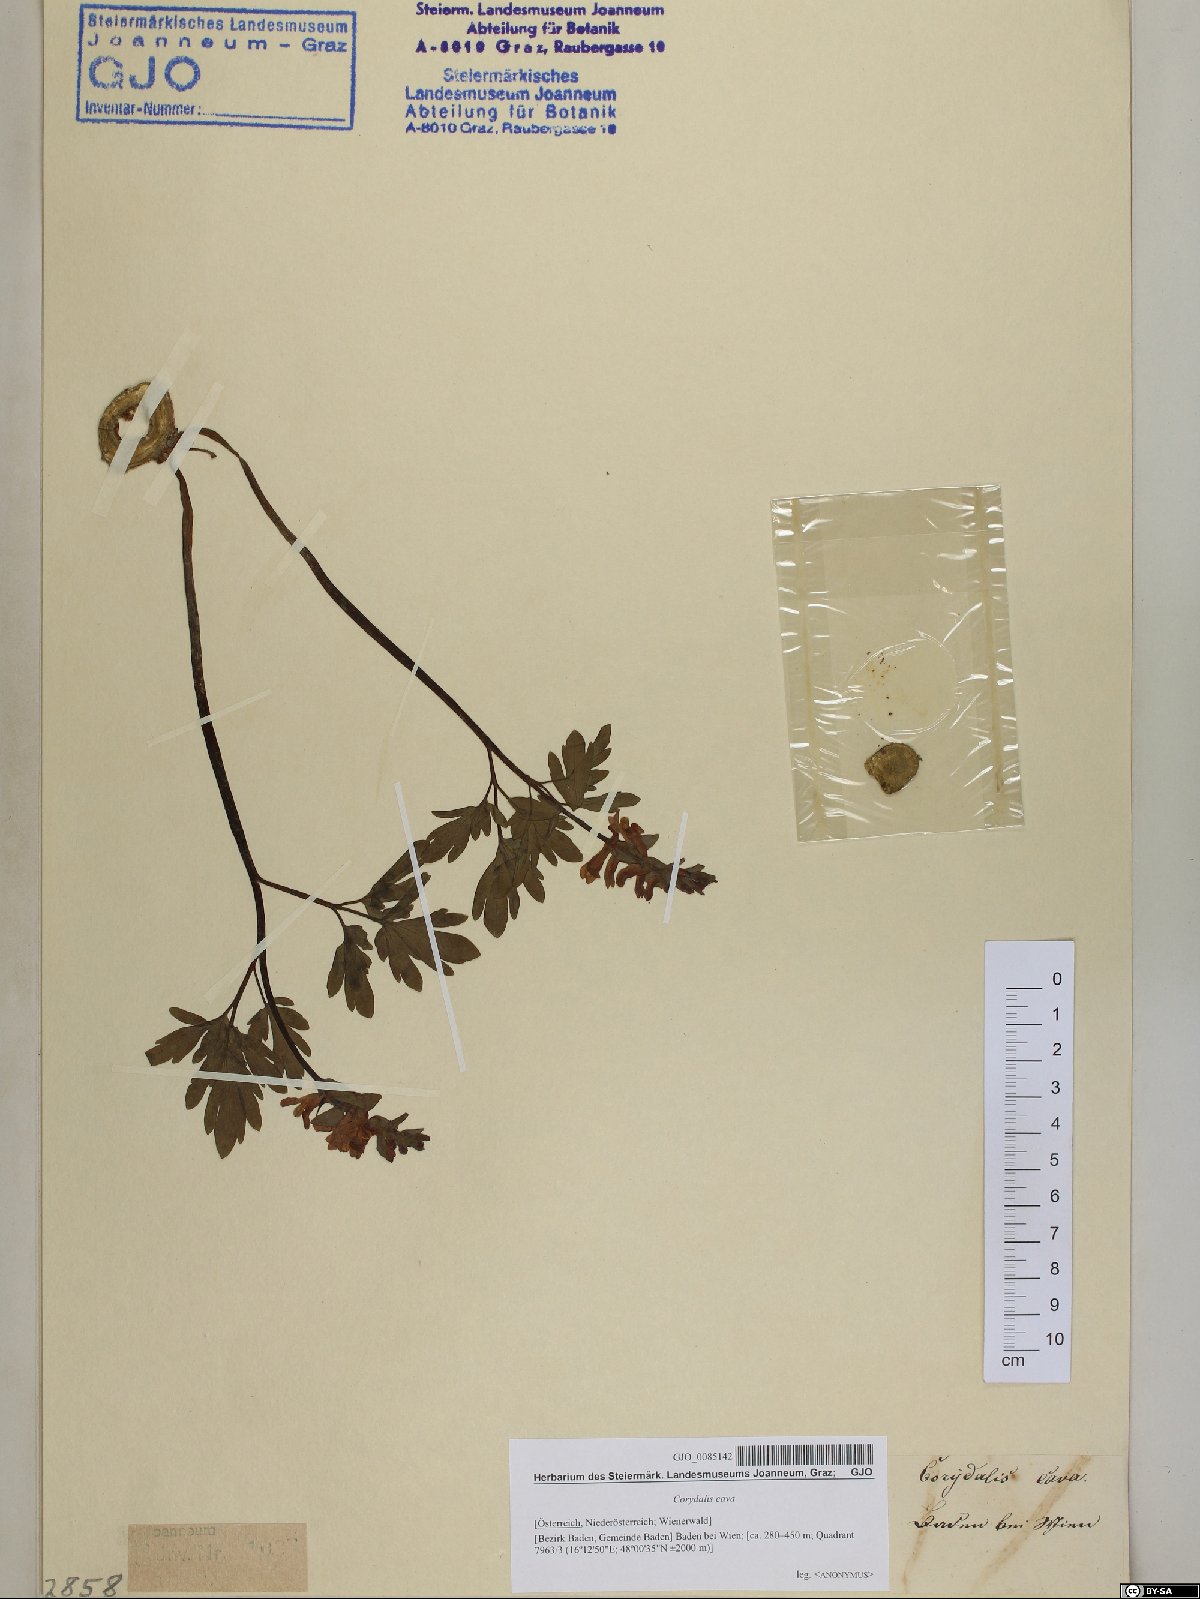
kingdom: Plantae
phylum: Tracheophyta
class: Magnoliopsida
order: Ranunculales
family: Papaveraceae
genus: Corydalis
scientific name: Corydalis cava
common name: Hollowroot
